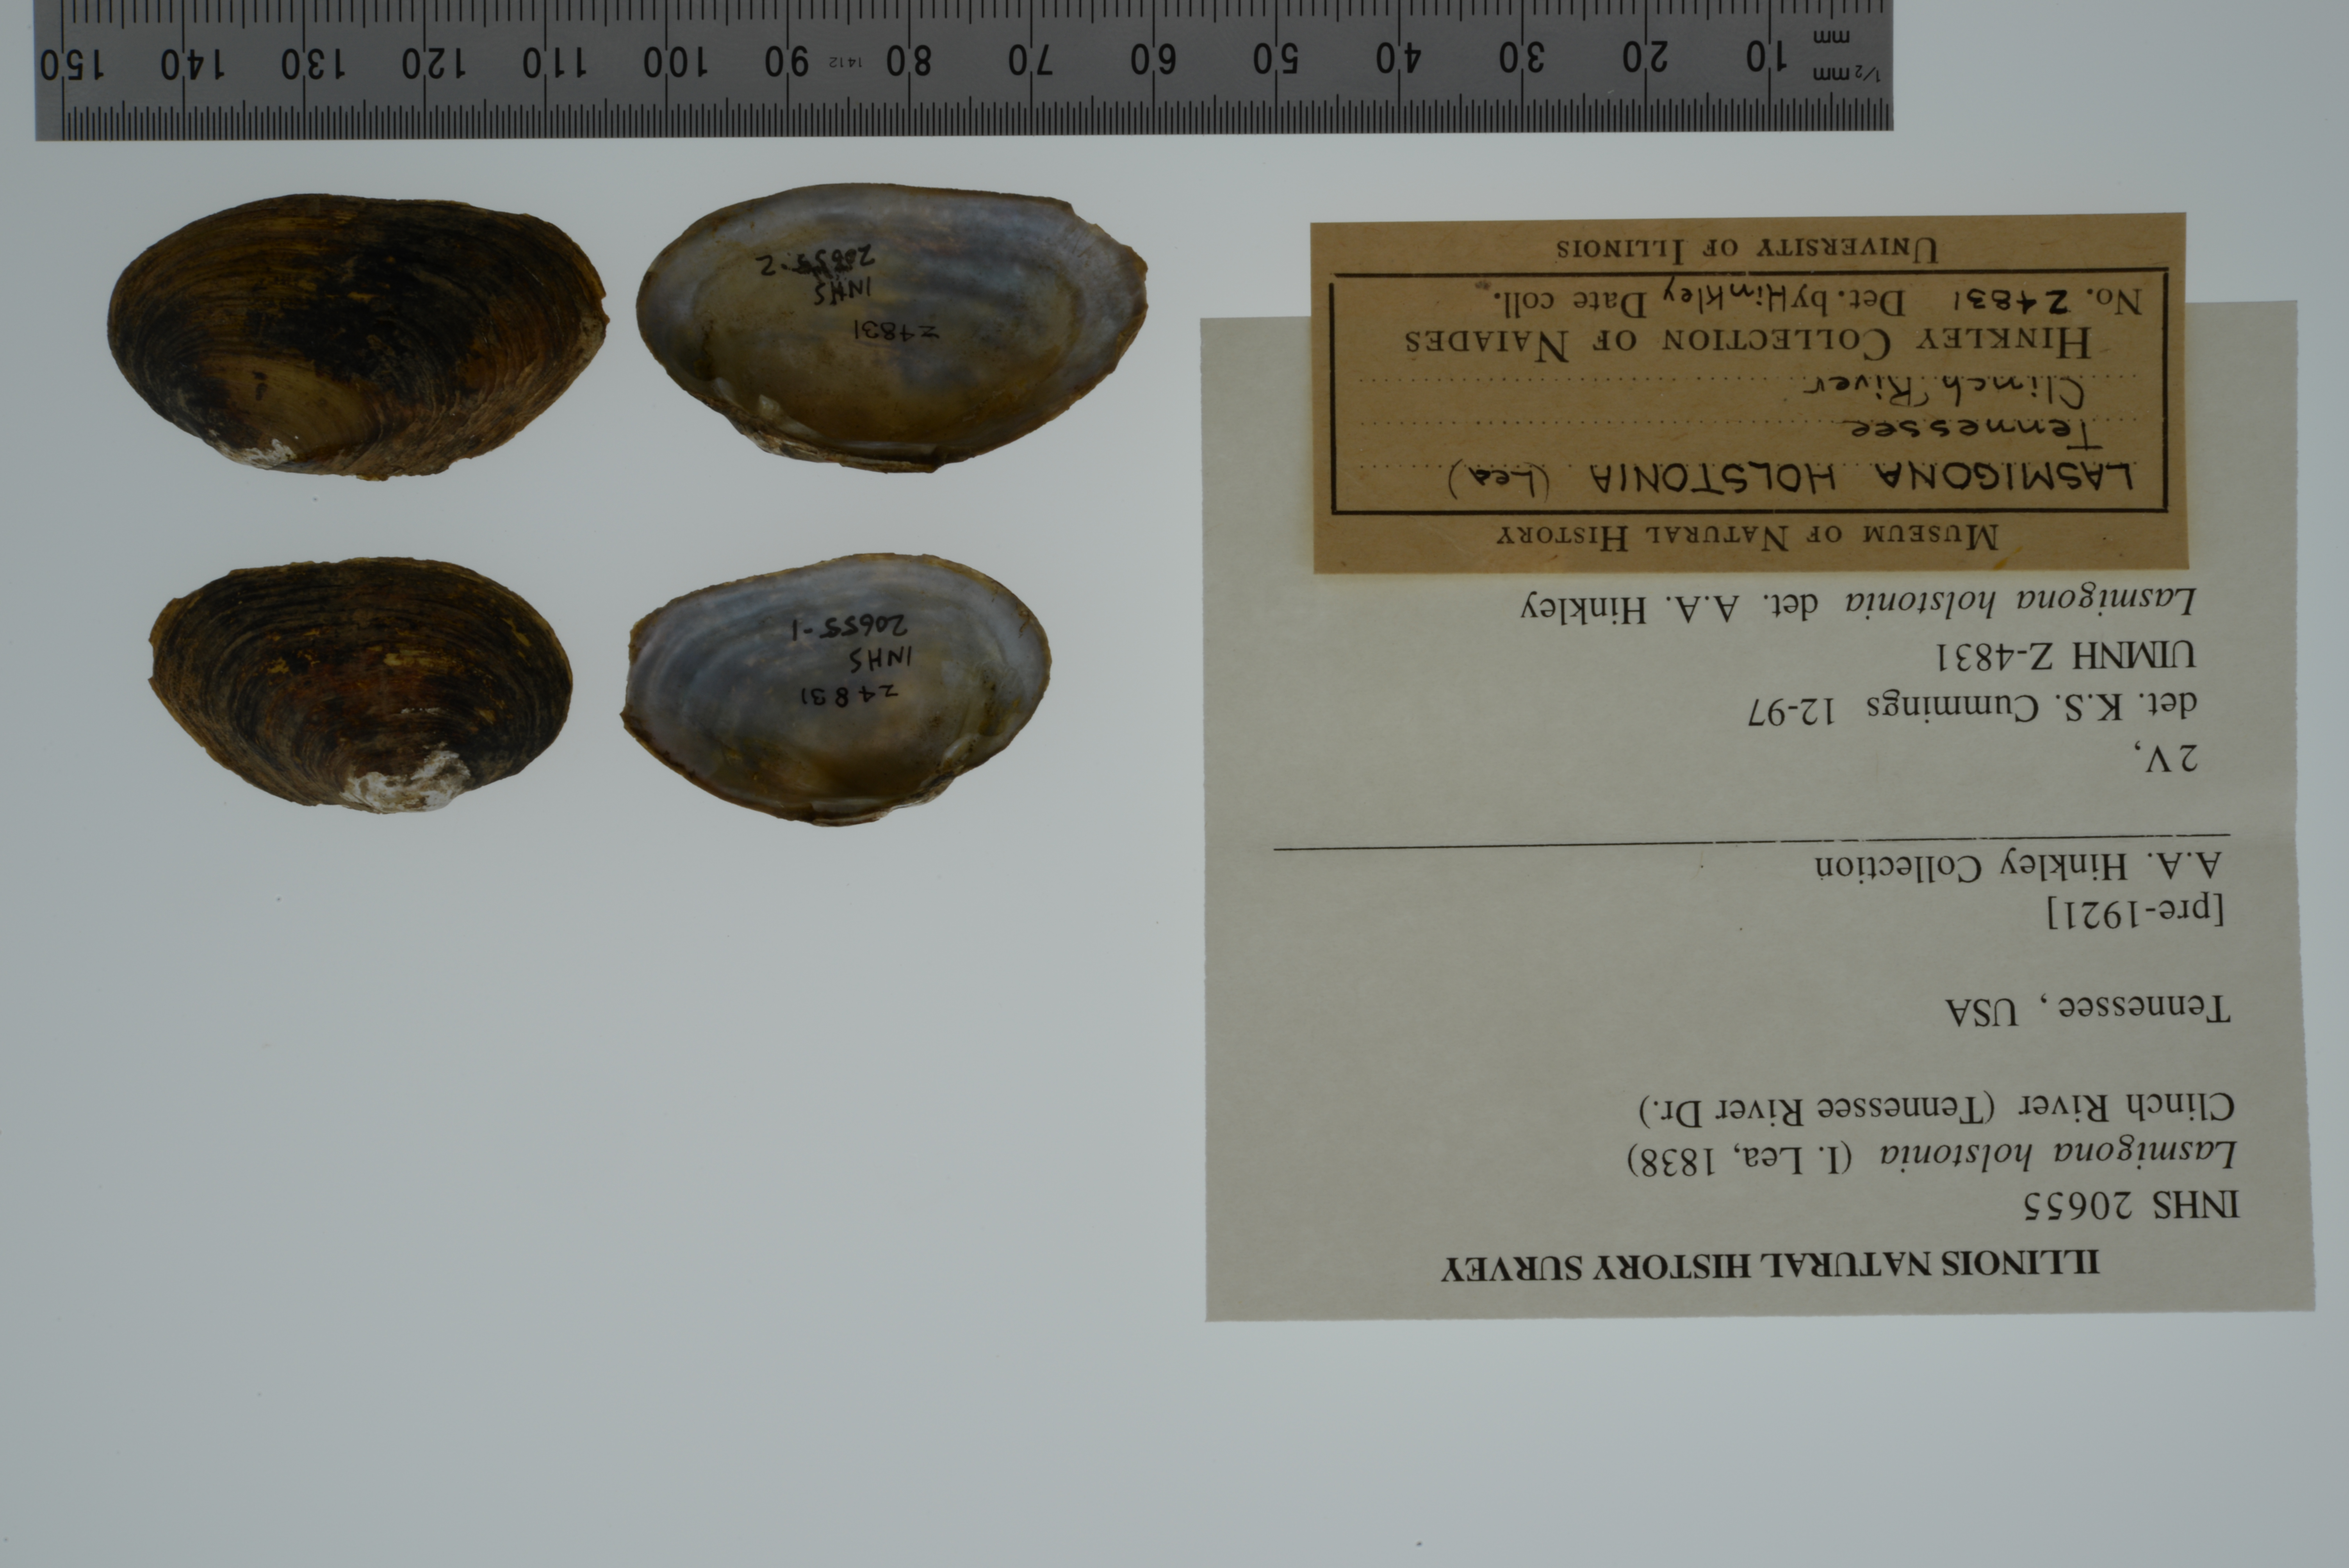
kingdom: Animalia
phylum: Mollusca
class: Bivalvia
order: Unionida
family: Unionidae
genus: Lasmigona
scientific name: Lasmigona holstonia
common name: Tennessee heelsplitter
